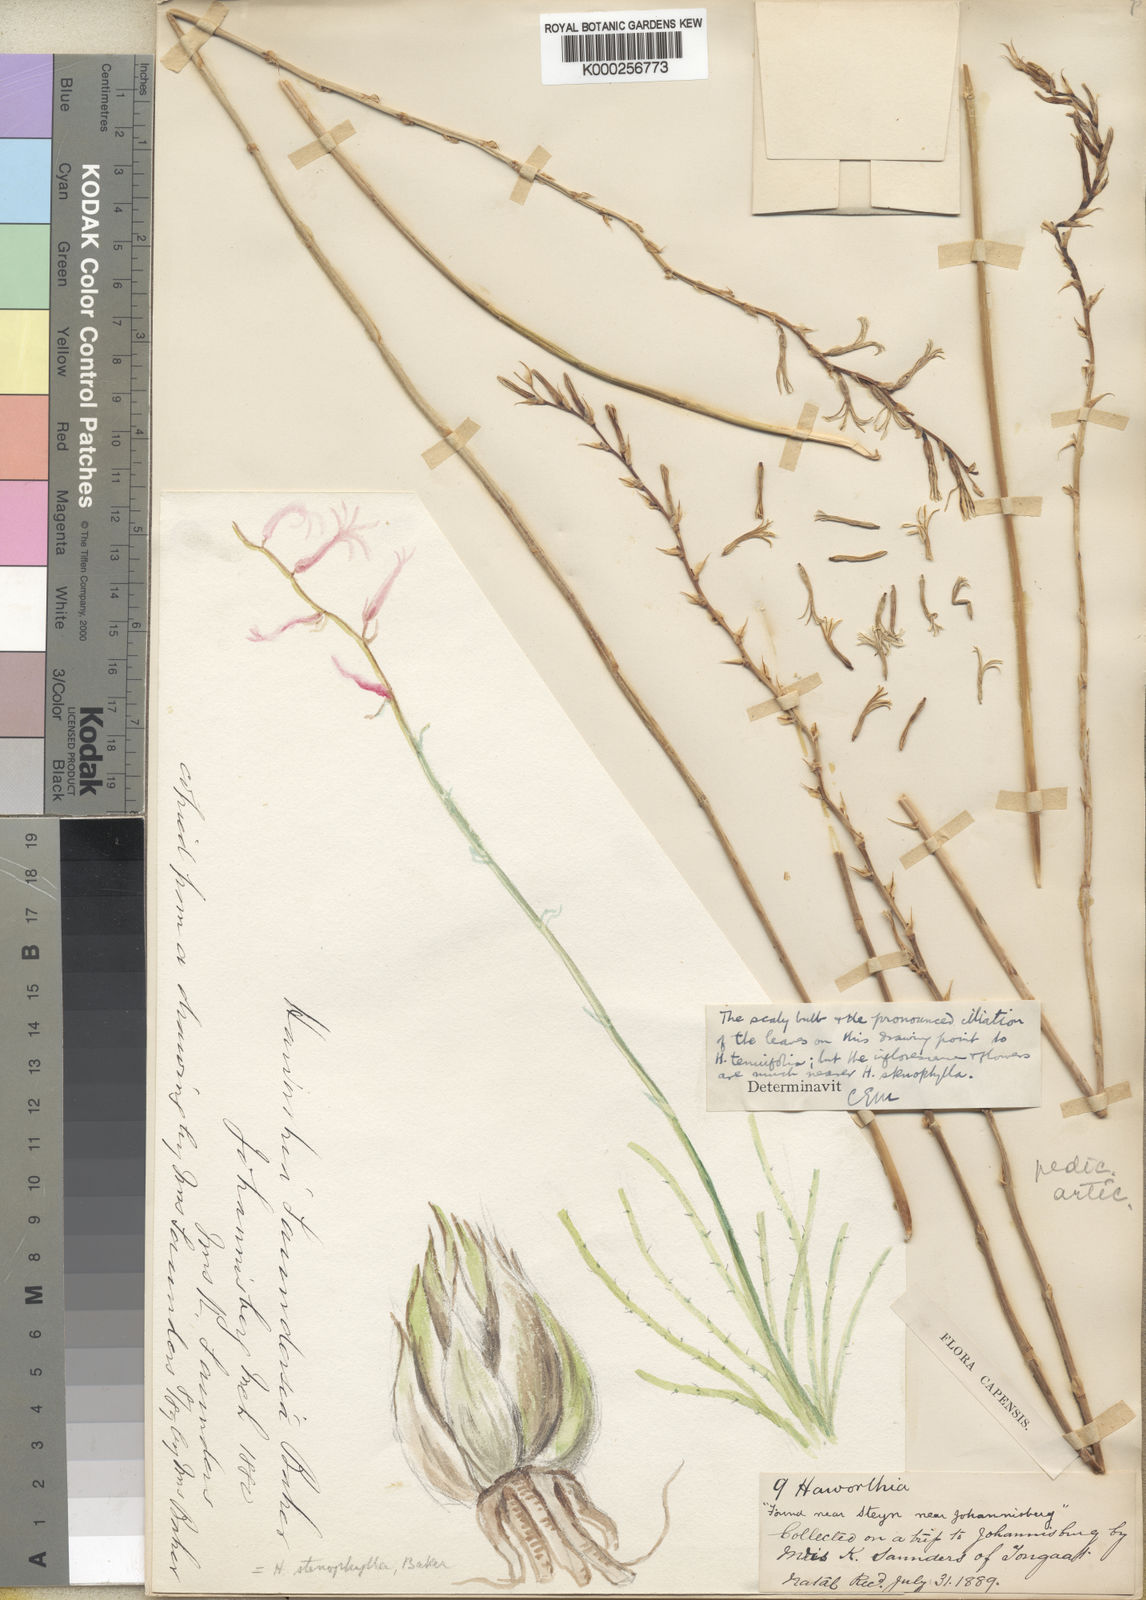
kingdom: Plantae
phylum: Tracheophyta
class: Liliopsida
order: Asparagales
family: Asphodelaceae
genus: Aloe
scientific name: Aloe welwitschii
